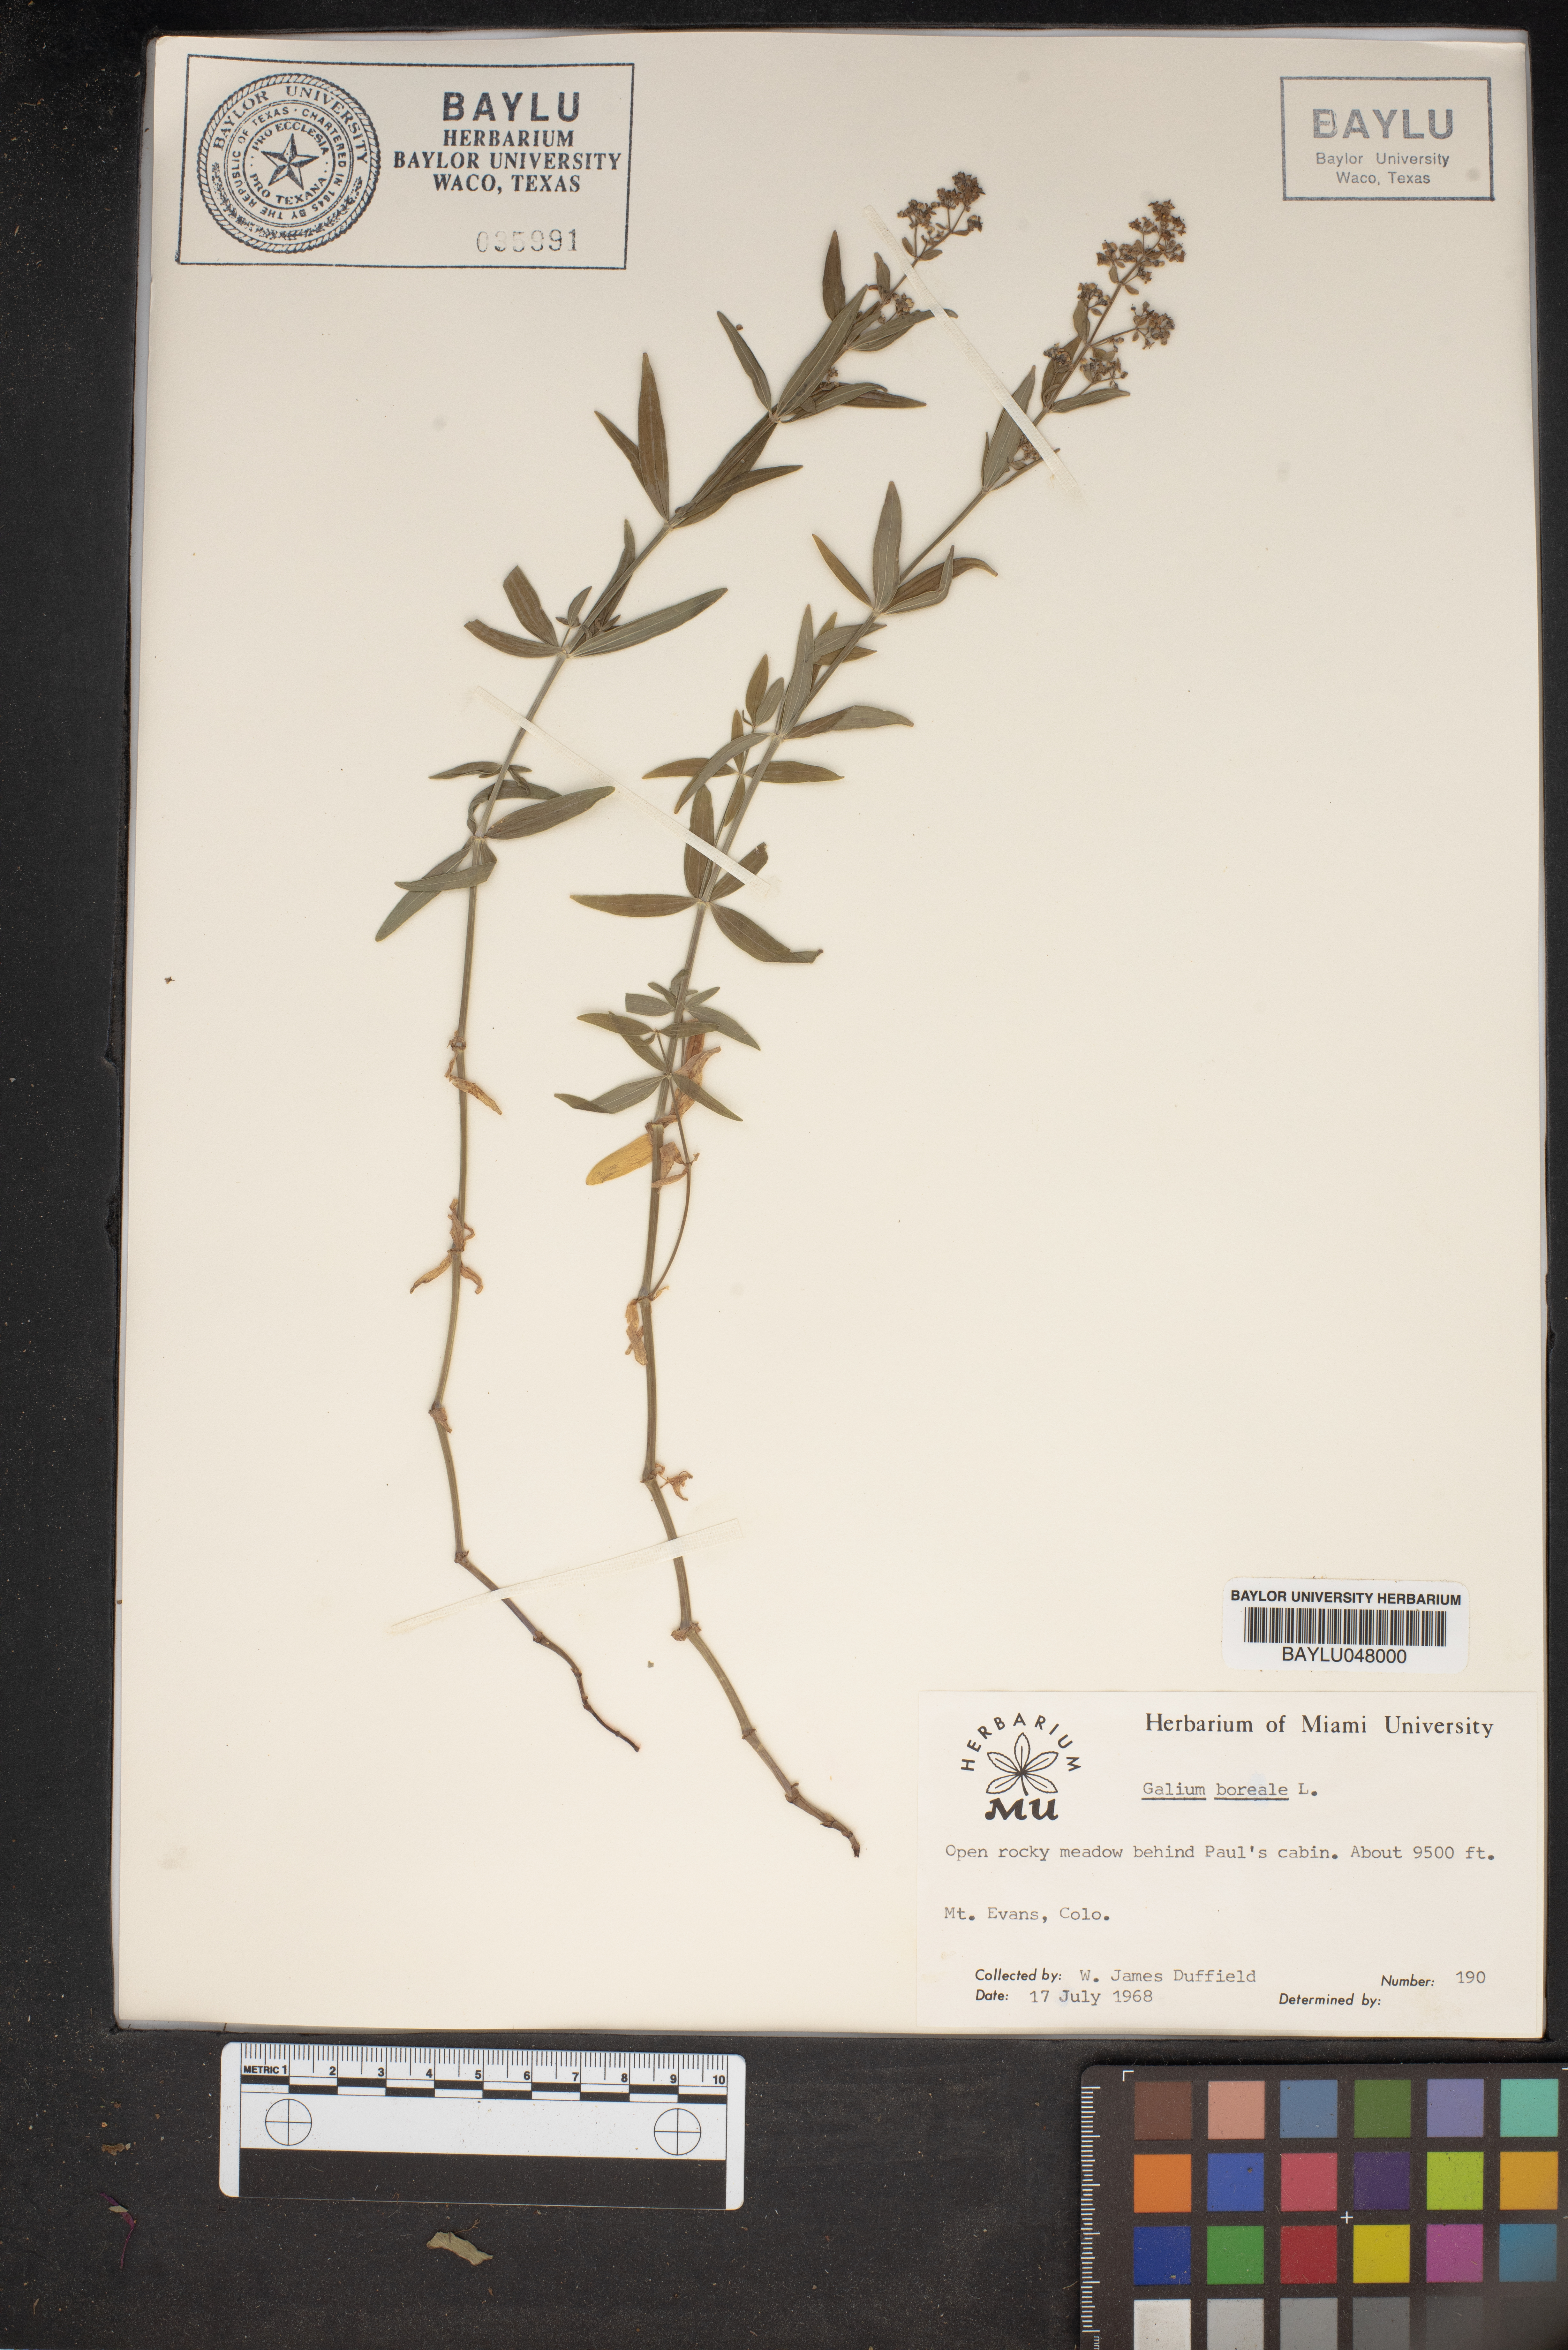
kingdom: Plantae
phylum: Tracheophyta
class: Magnoliopsida
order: Gentianales
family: Rubiaceae
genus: Galium
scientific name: Galium boreale
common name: Northern bedstraw
